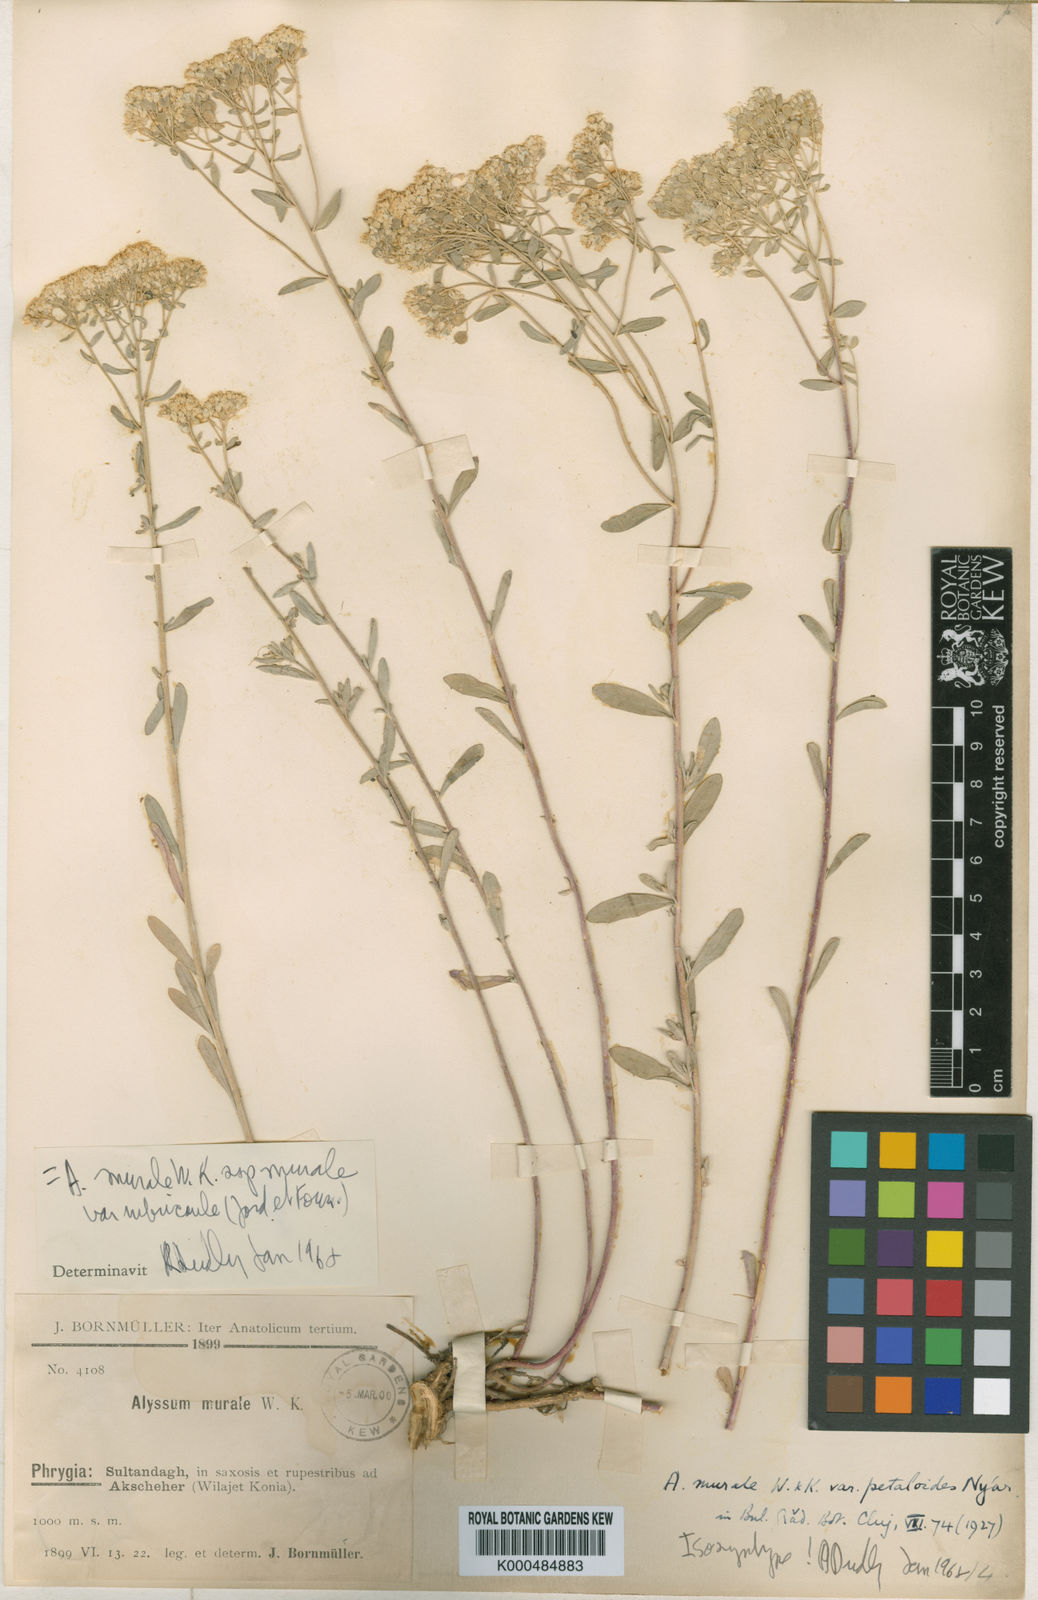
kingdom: Plantae
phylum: Tracheophyta
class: Magnoliopsida
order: Brassicales
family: Brassicaceae
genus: Odontarrhena
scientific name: Odontarrhena muralis
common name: Rock alyssum
